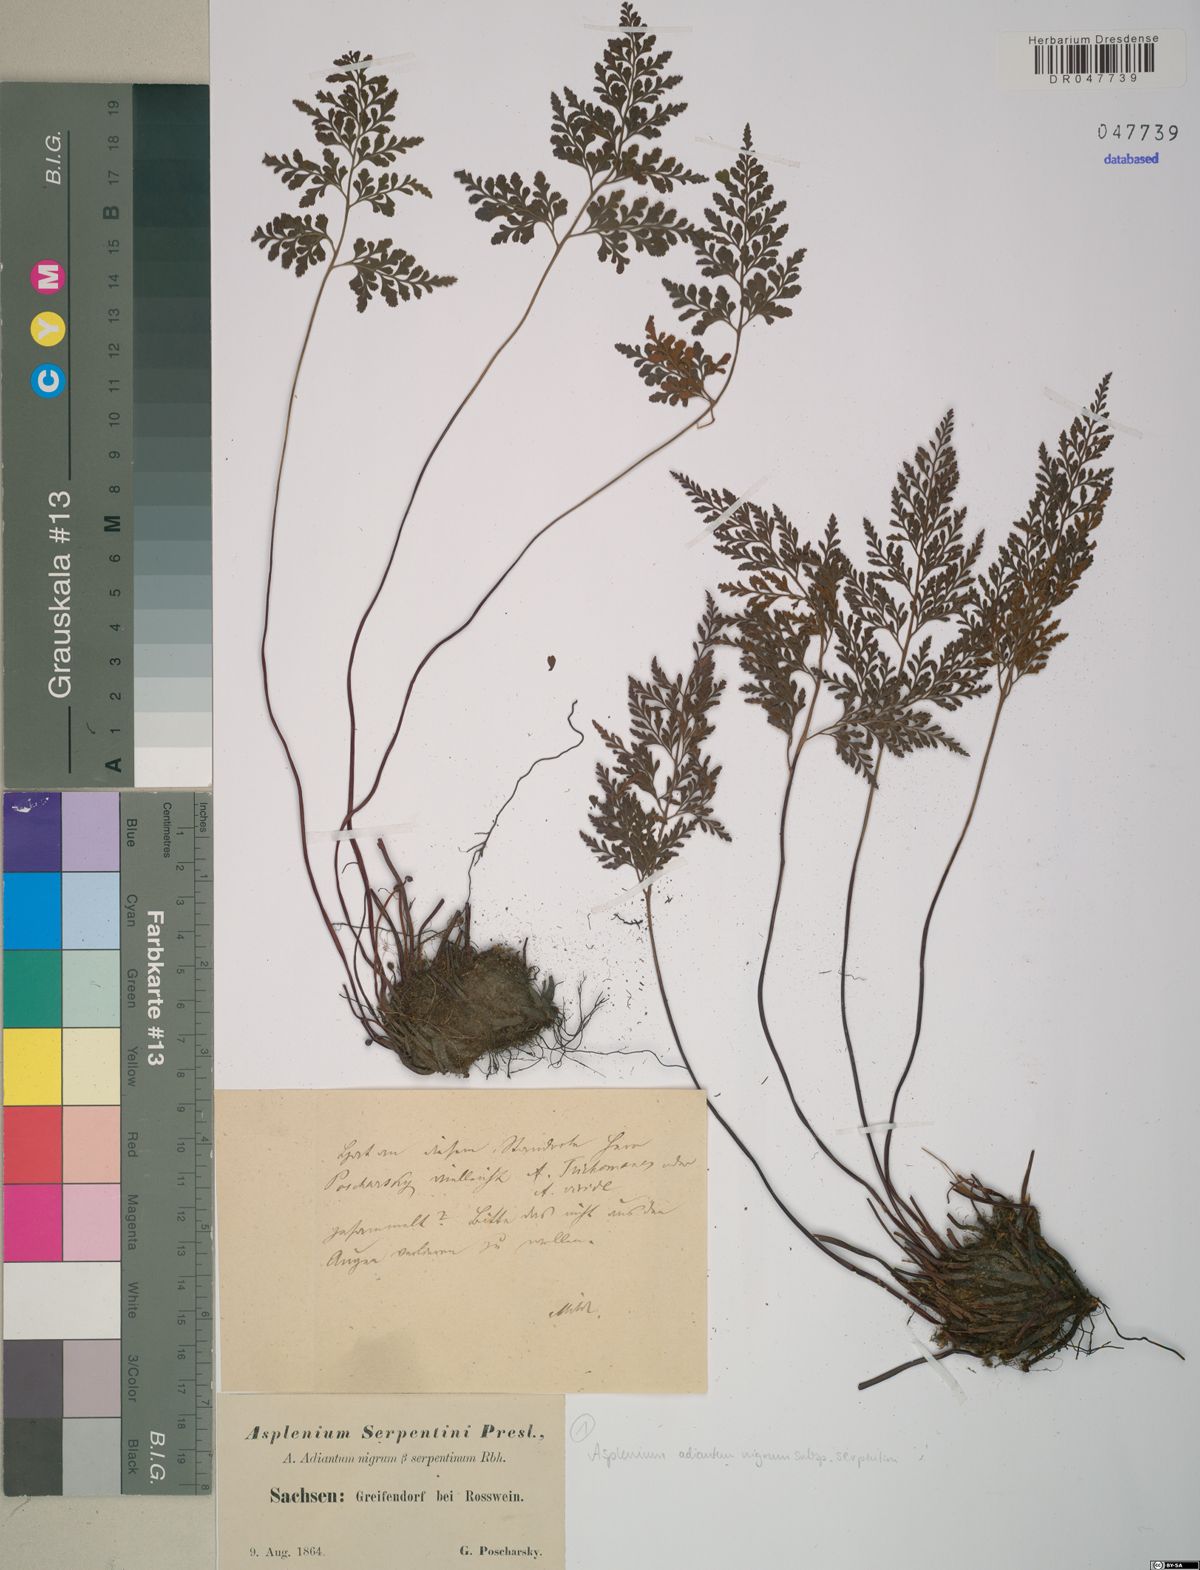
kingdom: Plantae
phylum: Tracheophyta
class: Polypodiopsida
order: Polypodiales
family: Aspleniaceae
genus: Asplenium
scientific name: Asplenium cuneifolium
